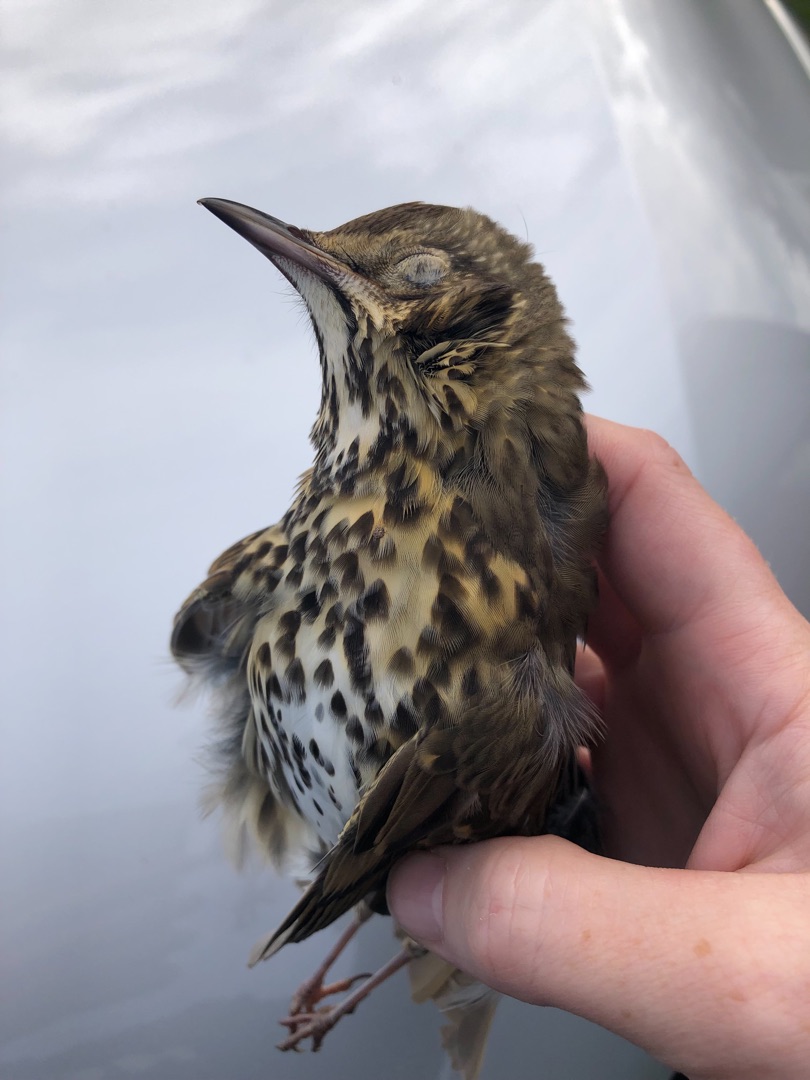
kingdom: Animalia
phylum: Chordata
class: Aves
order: Passeriformes
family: Turdidae
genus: Turdus
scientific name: Turdus philomelos
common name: Sangdrossel
